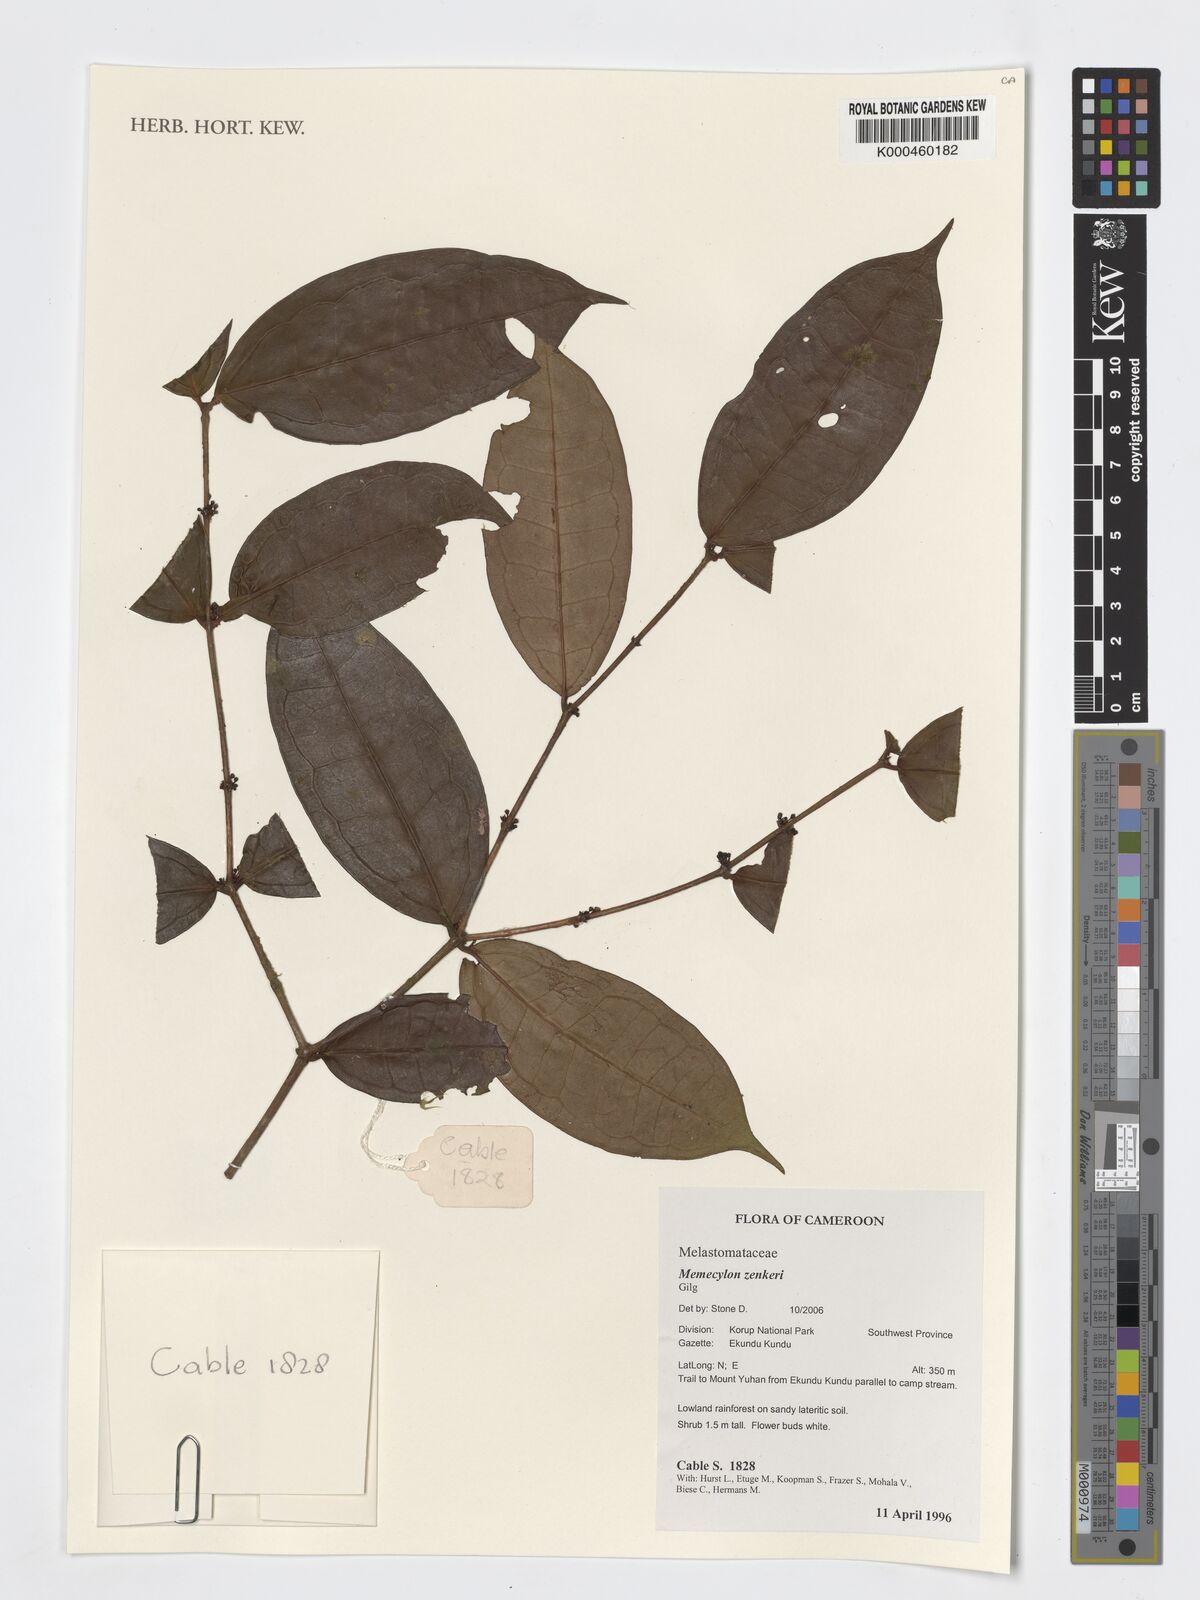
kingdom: Plantae
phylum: Tracheophyta
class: Magnoliopsida
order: Myrtales
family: Melastomataceae
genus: Memecylon
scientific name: Memecylon zenkeri
